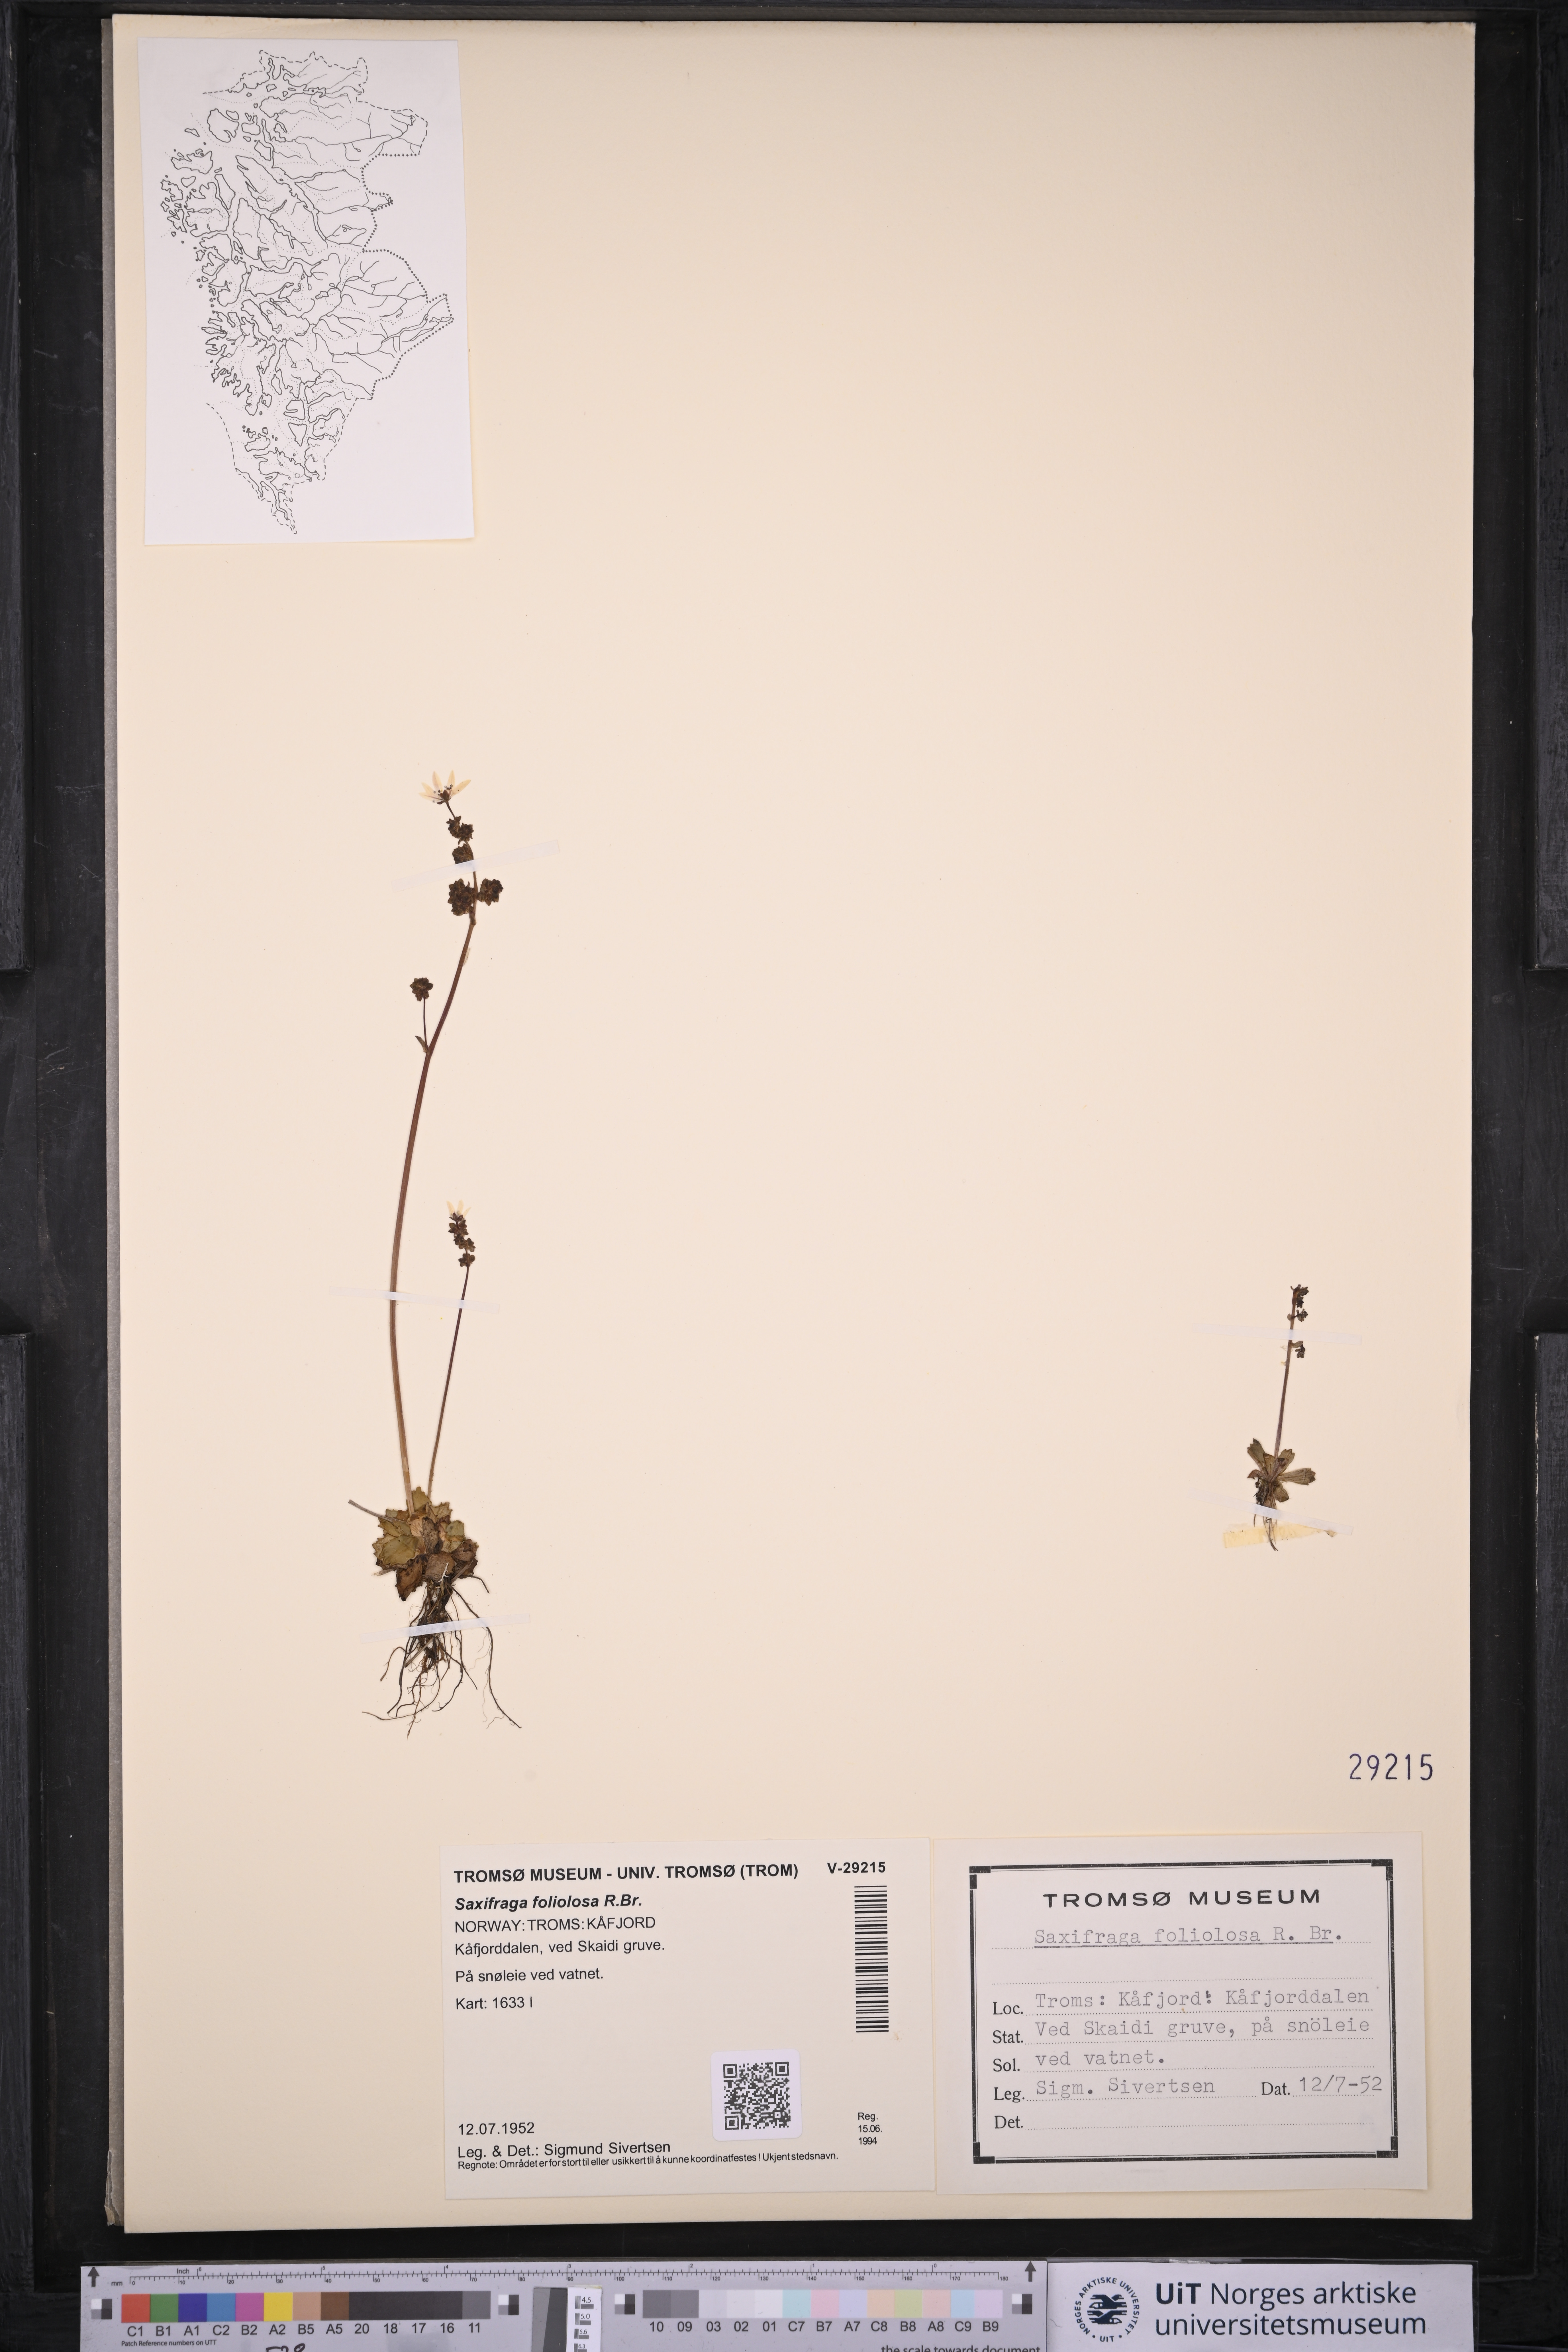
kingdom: Plantae
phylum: Tracheophyta
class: Magnoliopsida
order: Saxifragales
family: Saxifragaceae
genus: Micranthes
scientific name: Micranthes foliolosa
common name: Leafystem saxifrage
